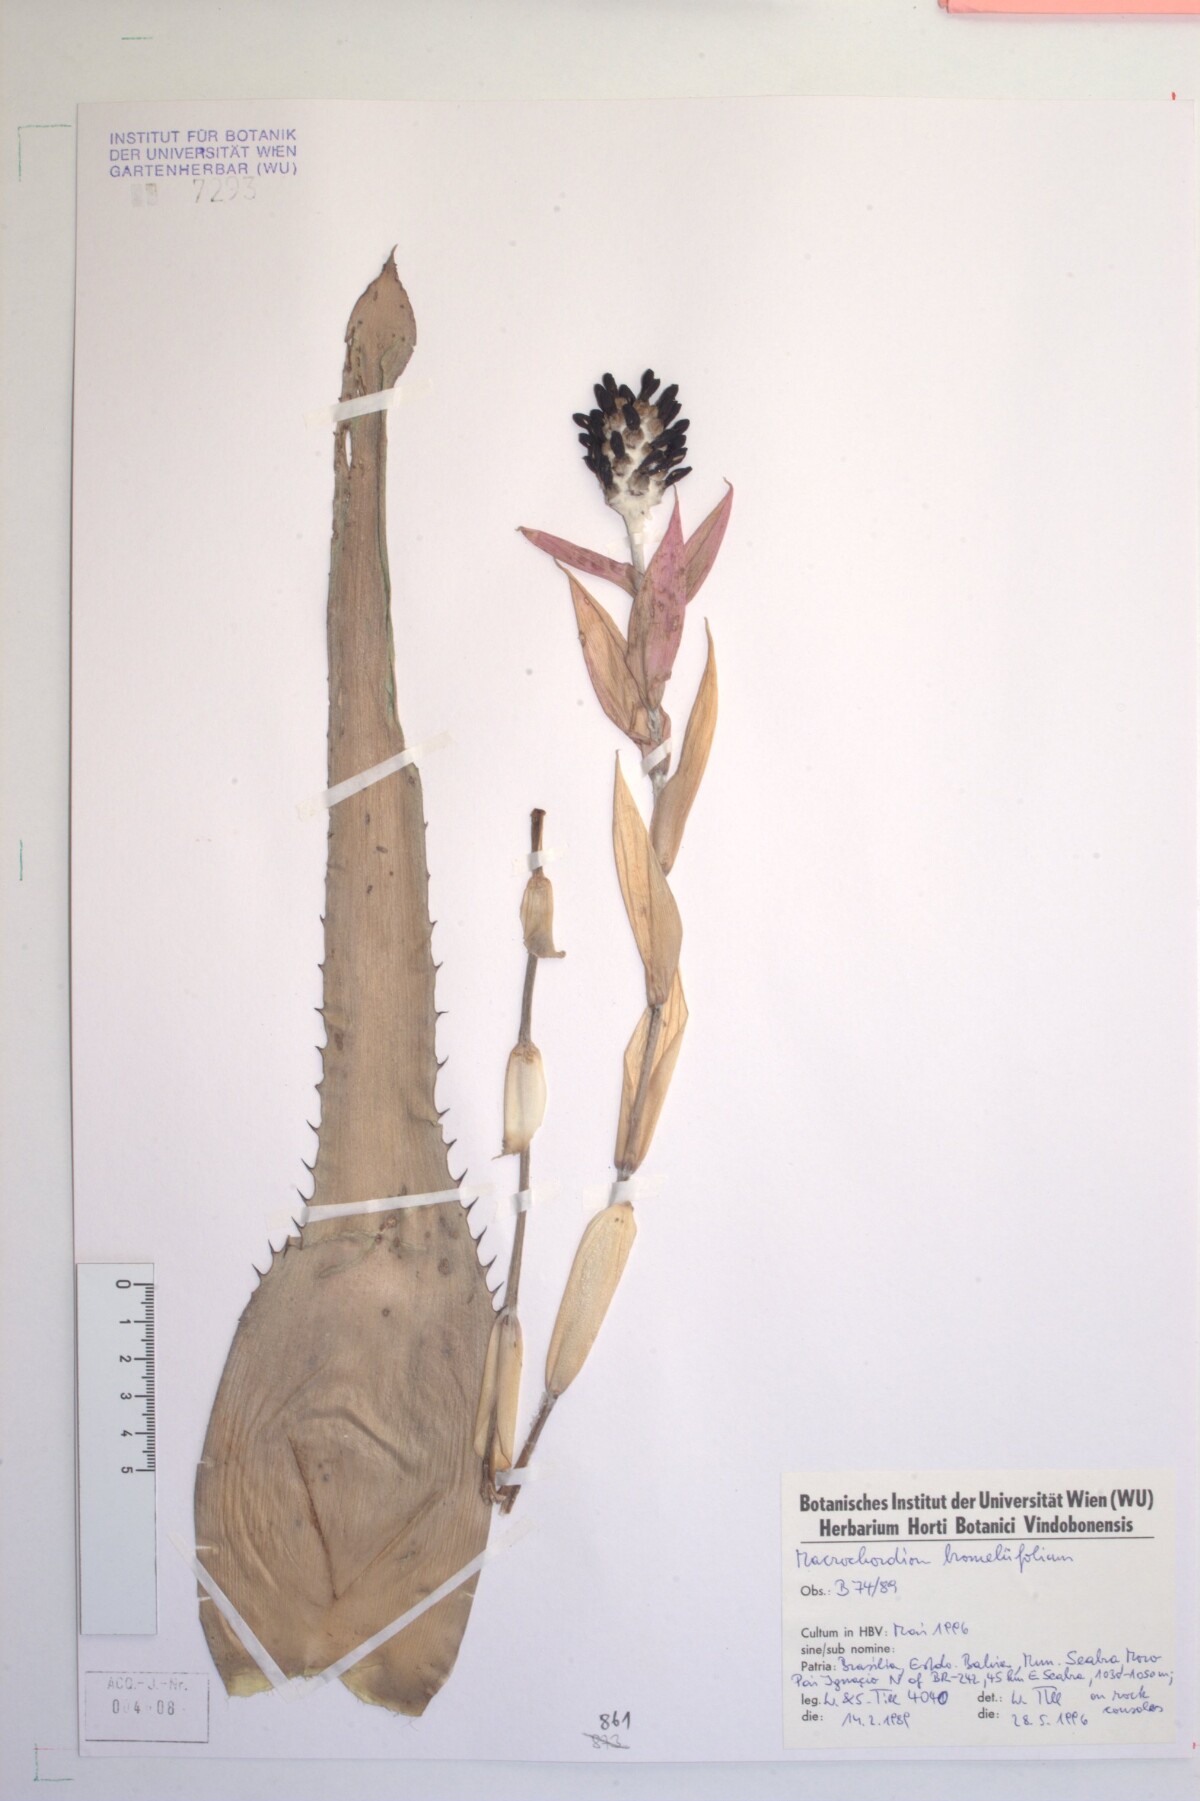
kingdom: Plantae
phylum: Tracheophyta
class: Liliopsida
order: Poales
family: Bromeliaceae
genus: Aechmea
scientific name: Aechmea bromeliifolia
